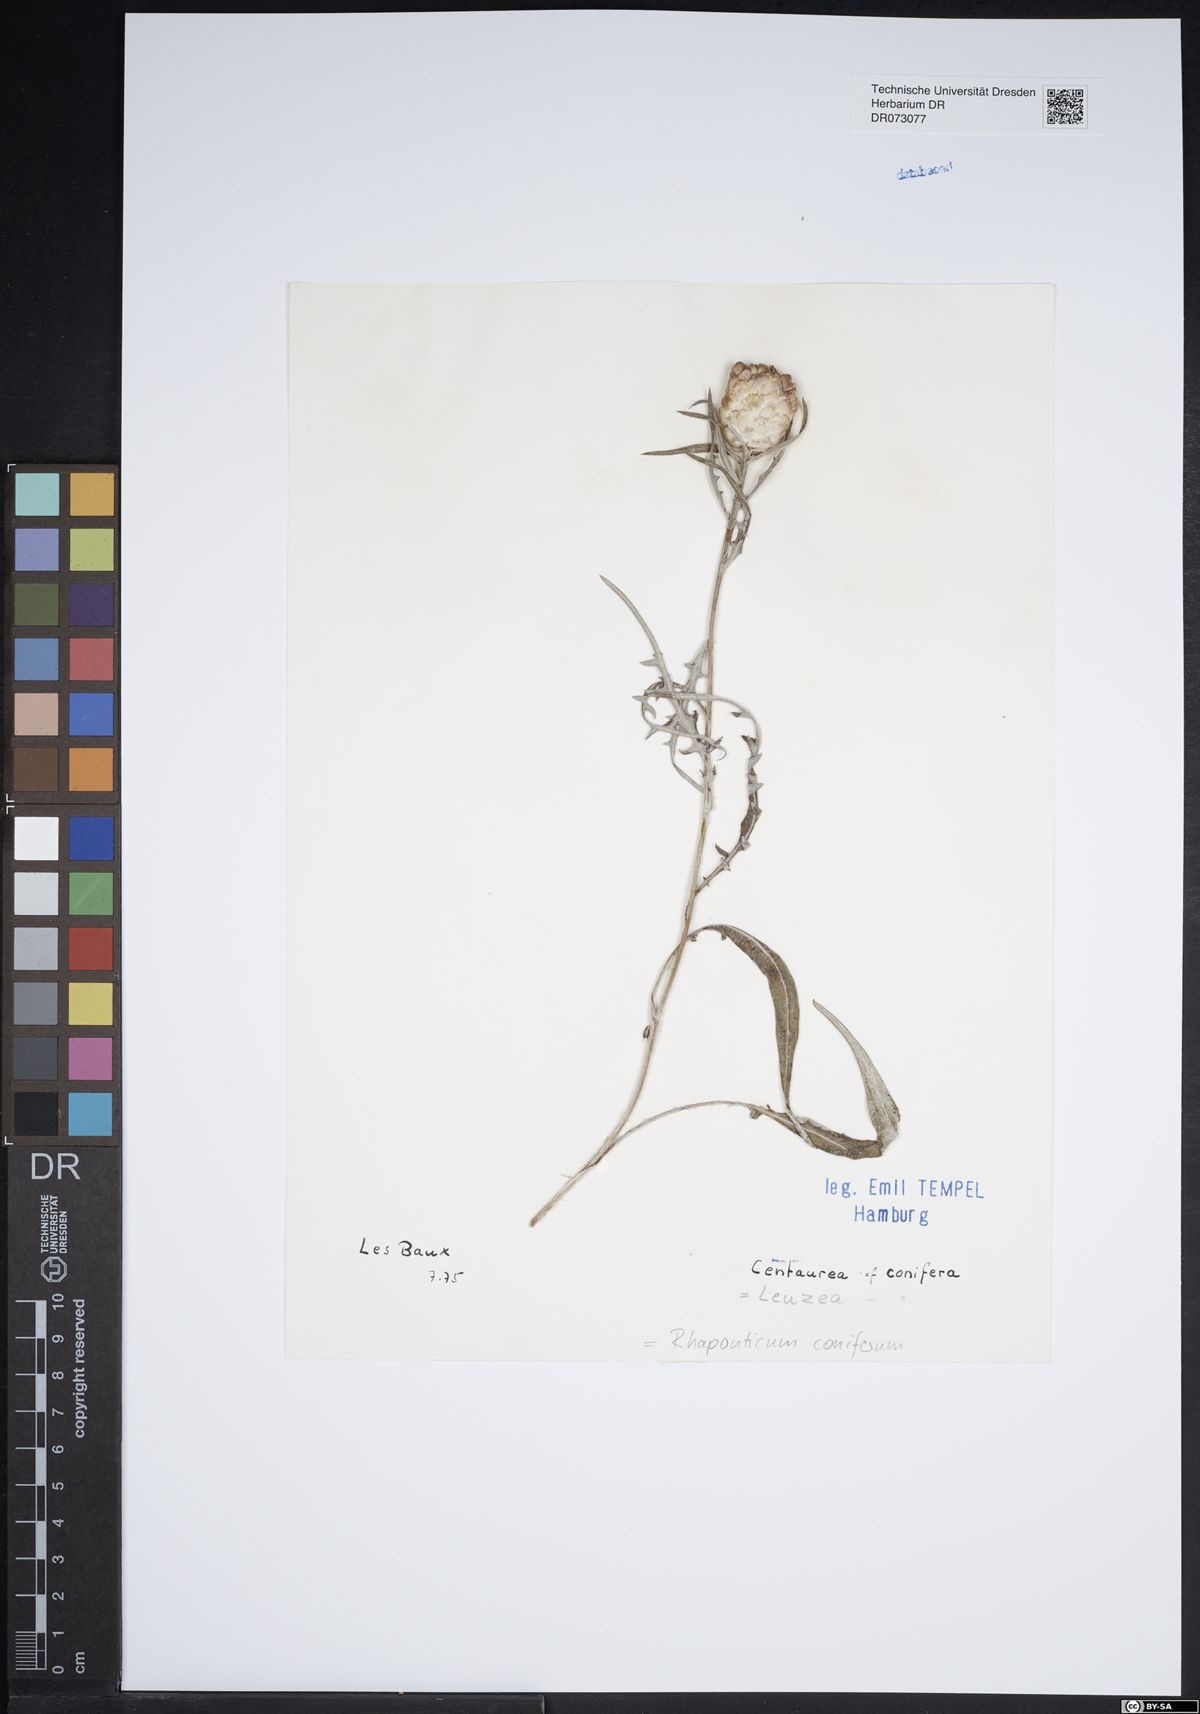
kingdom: Plantae
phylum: Tracheophyta
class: Magnoliopsida
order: Asterales
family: Asteraceae
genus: Xanthium
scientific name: Xanthium strumarium
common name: Rough cocklebur
